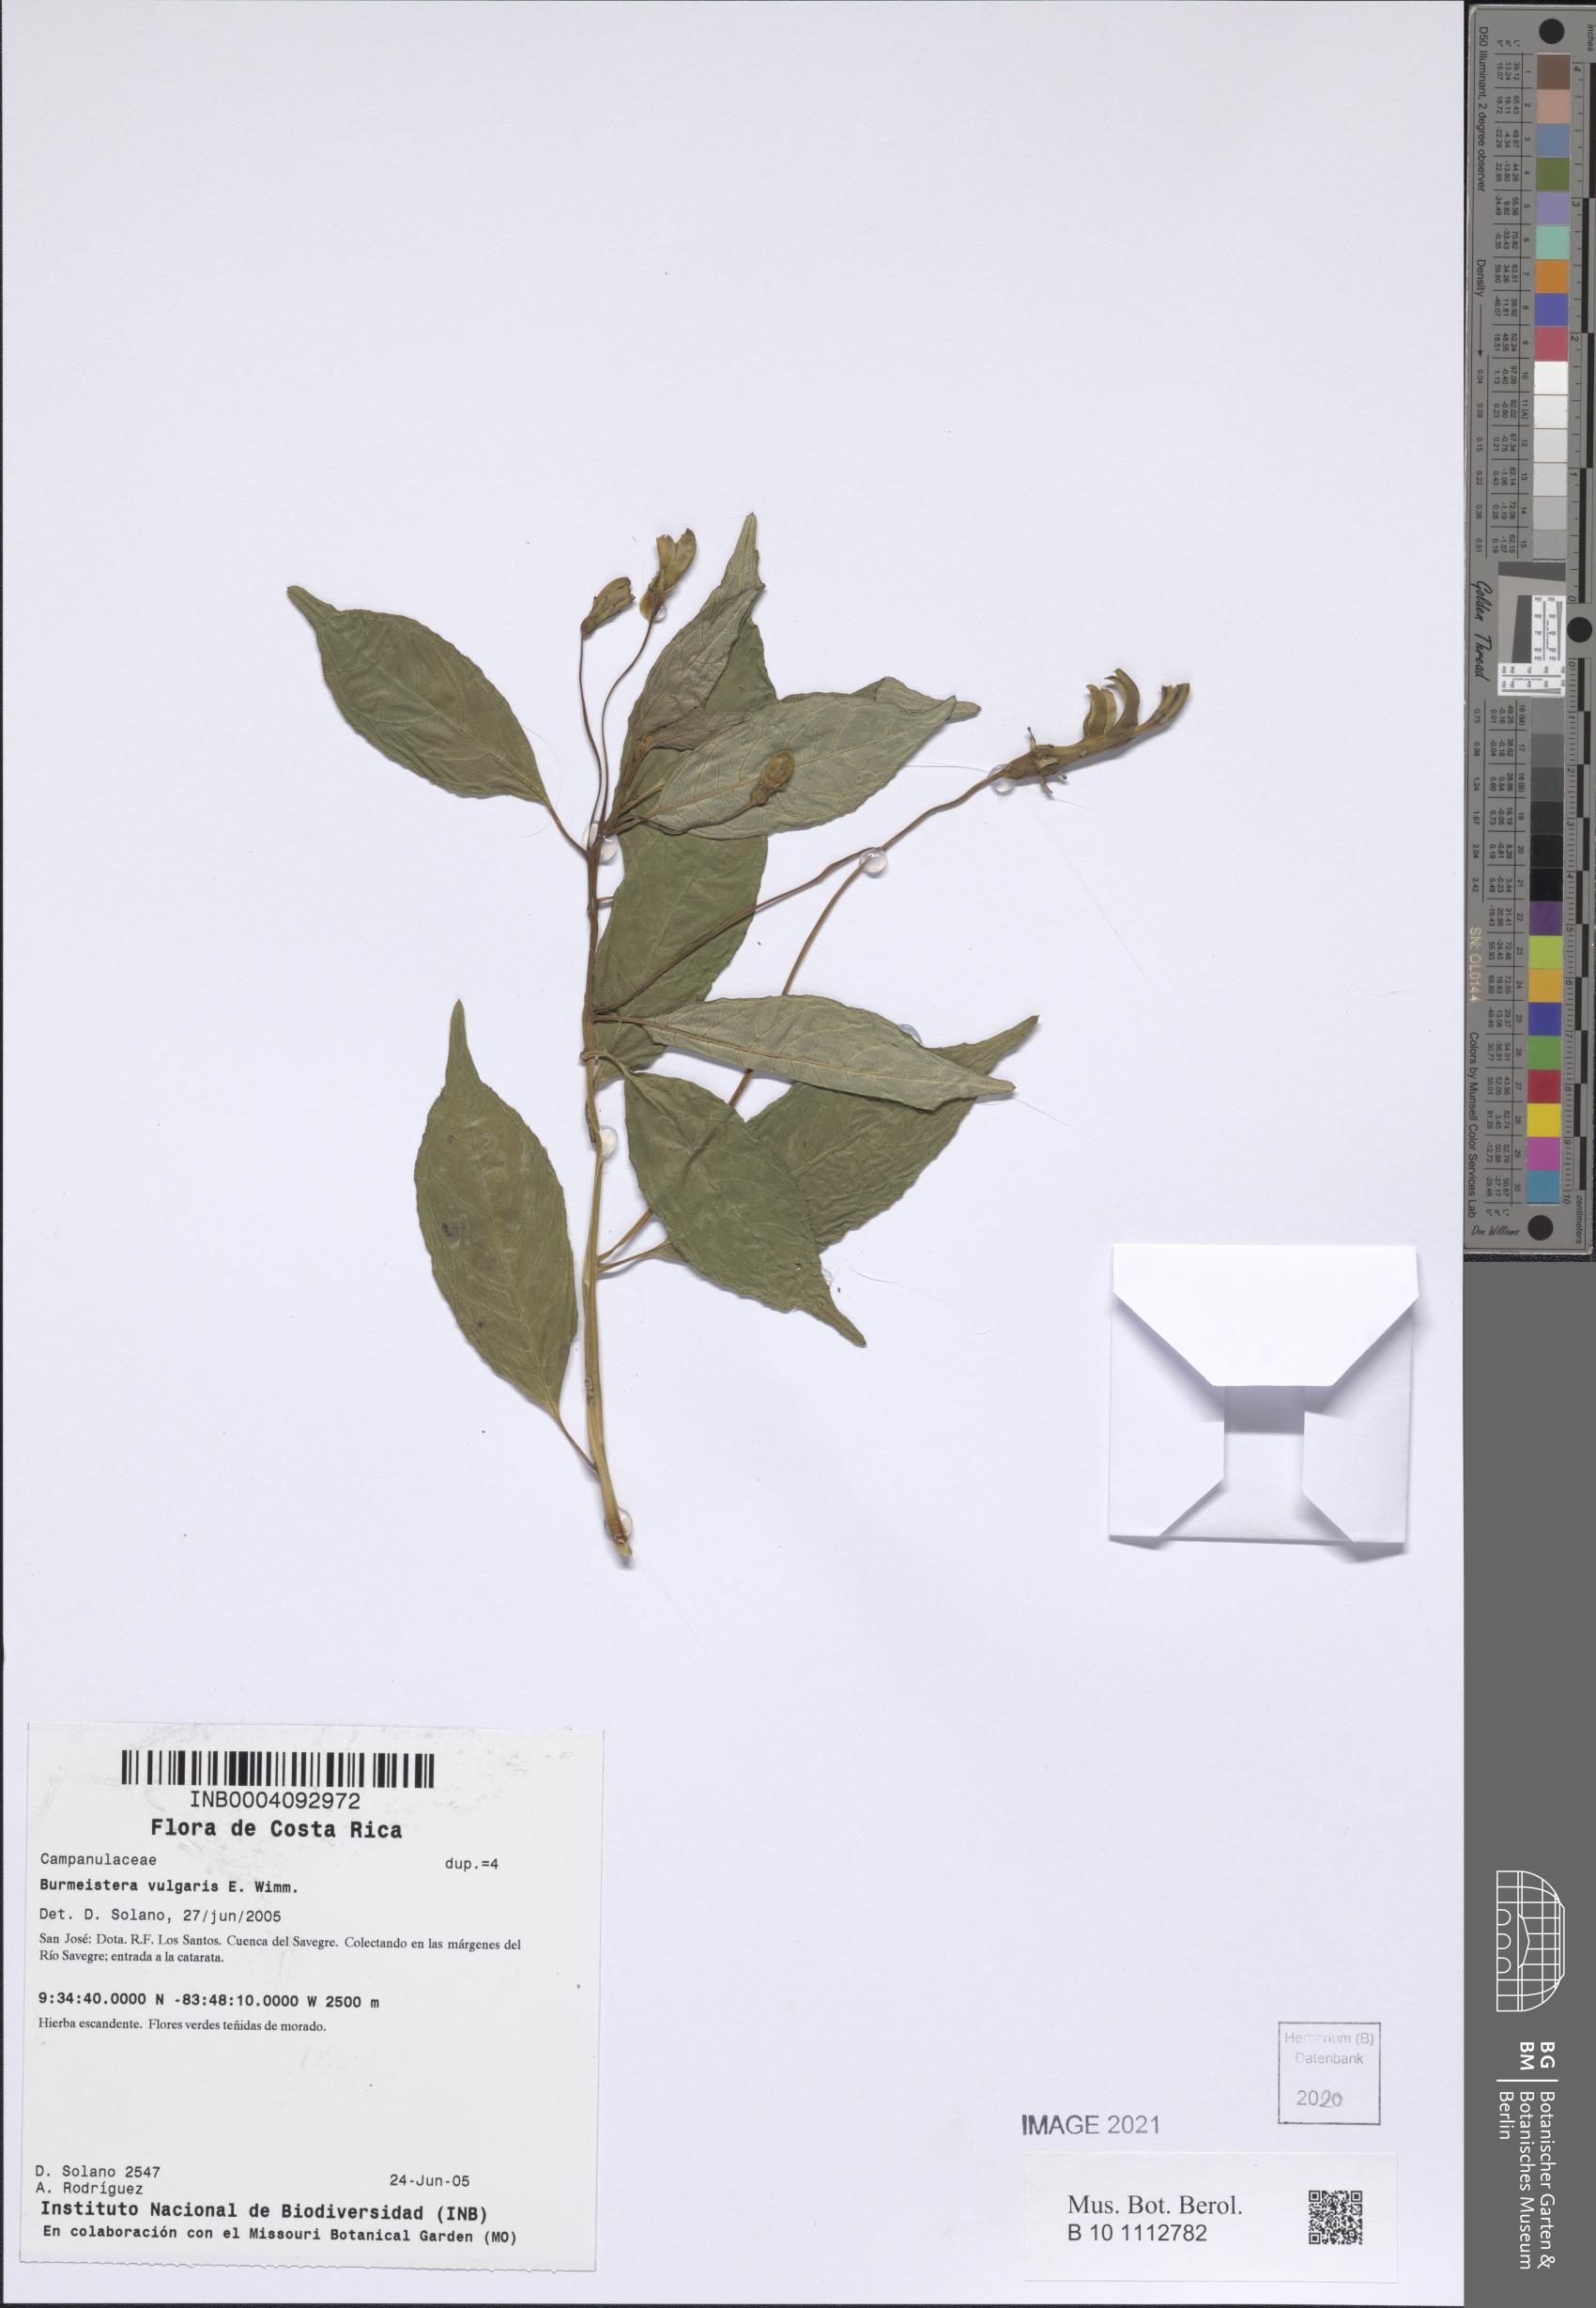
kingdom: Plantae
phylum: Tracheophyta
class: Magnoliopsida
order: Asterales
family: Campanulaceae
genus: Burmeistera
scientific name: Burmeistera vulgaris
